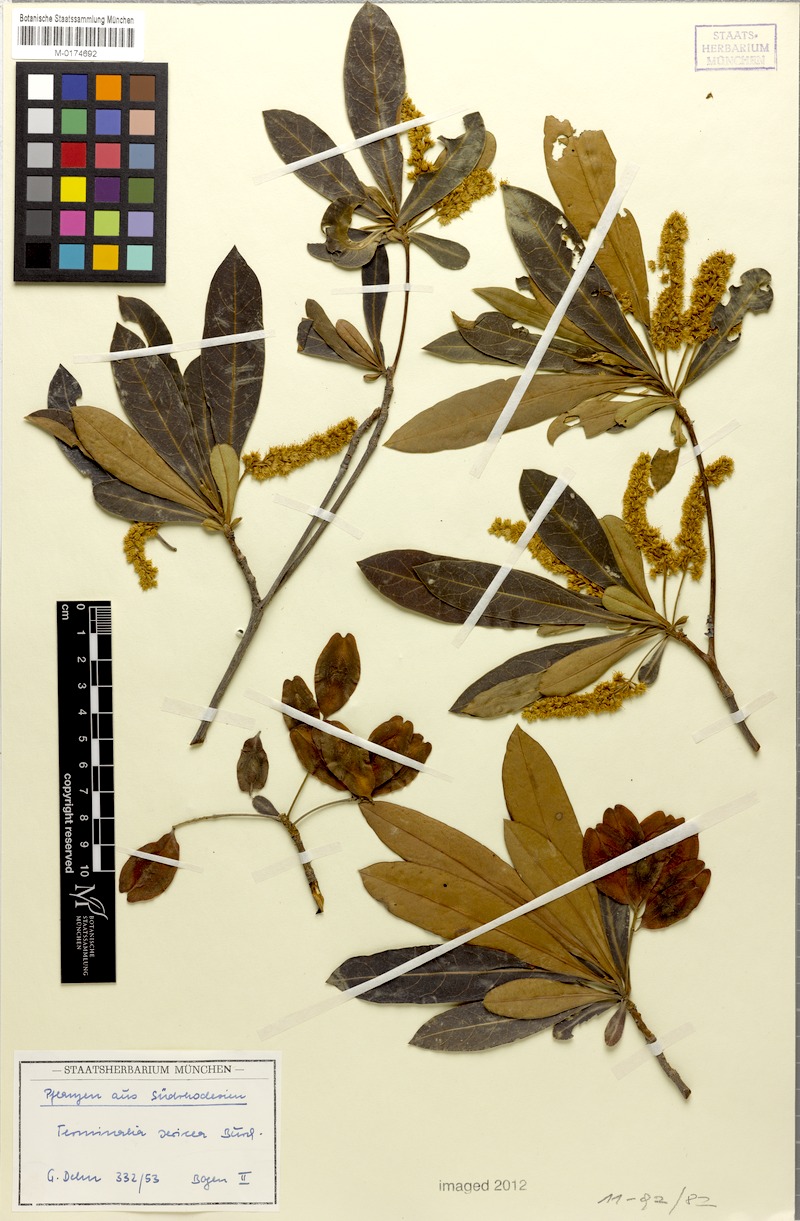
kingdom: Plantae
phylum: Tracheophyta
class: Magnoliopsida
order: Myrtales
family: Combretaceae
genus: Terminalia
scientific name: Terminalia sericea
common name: Clusterleaf
